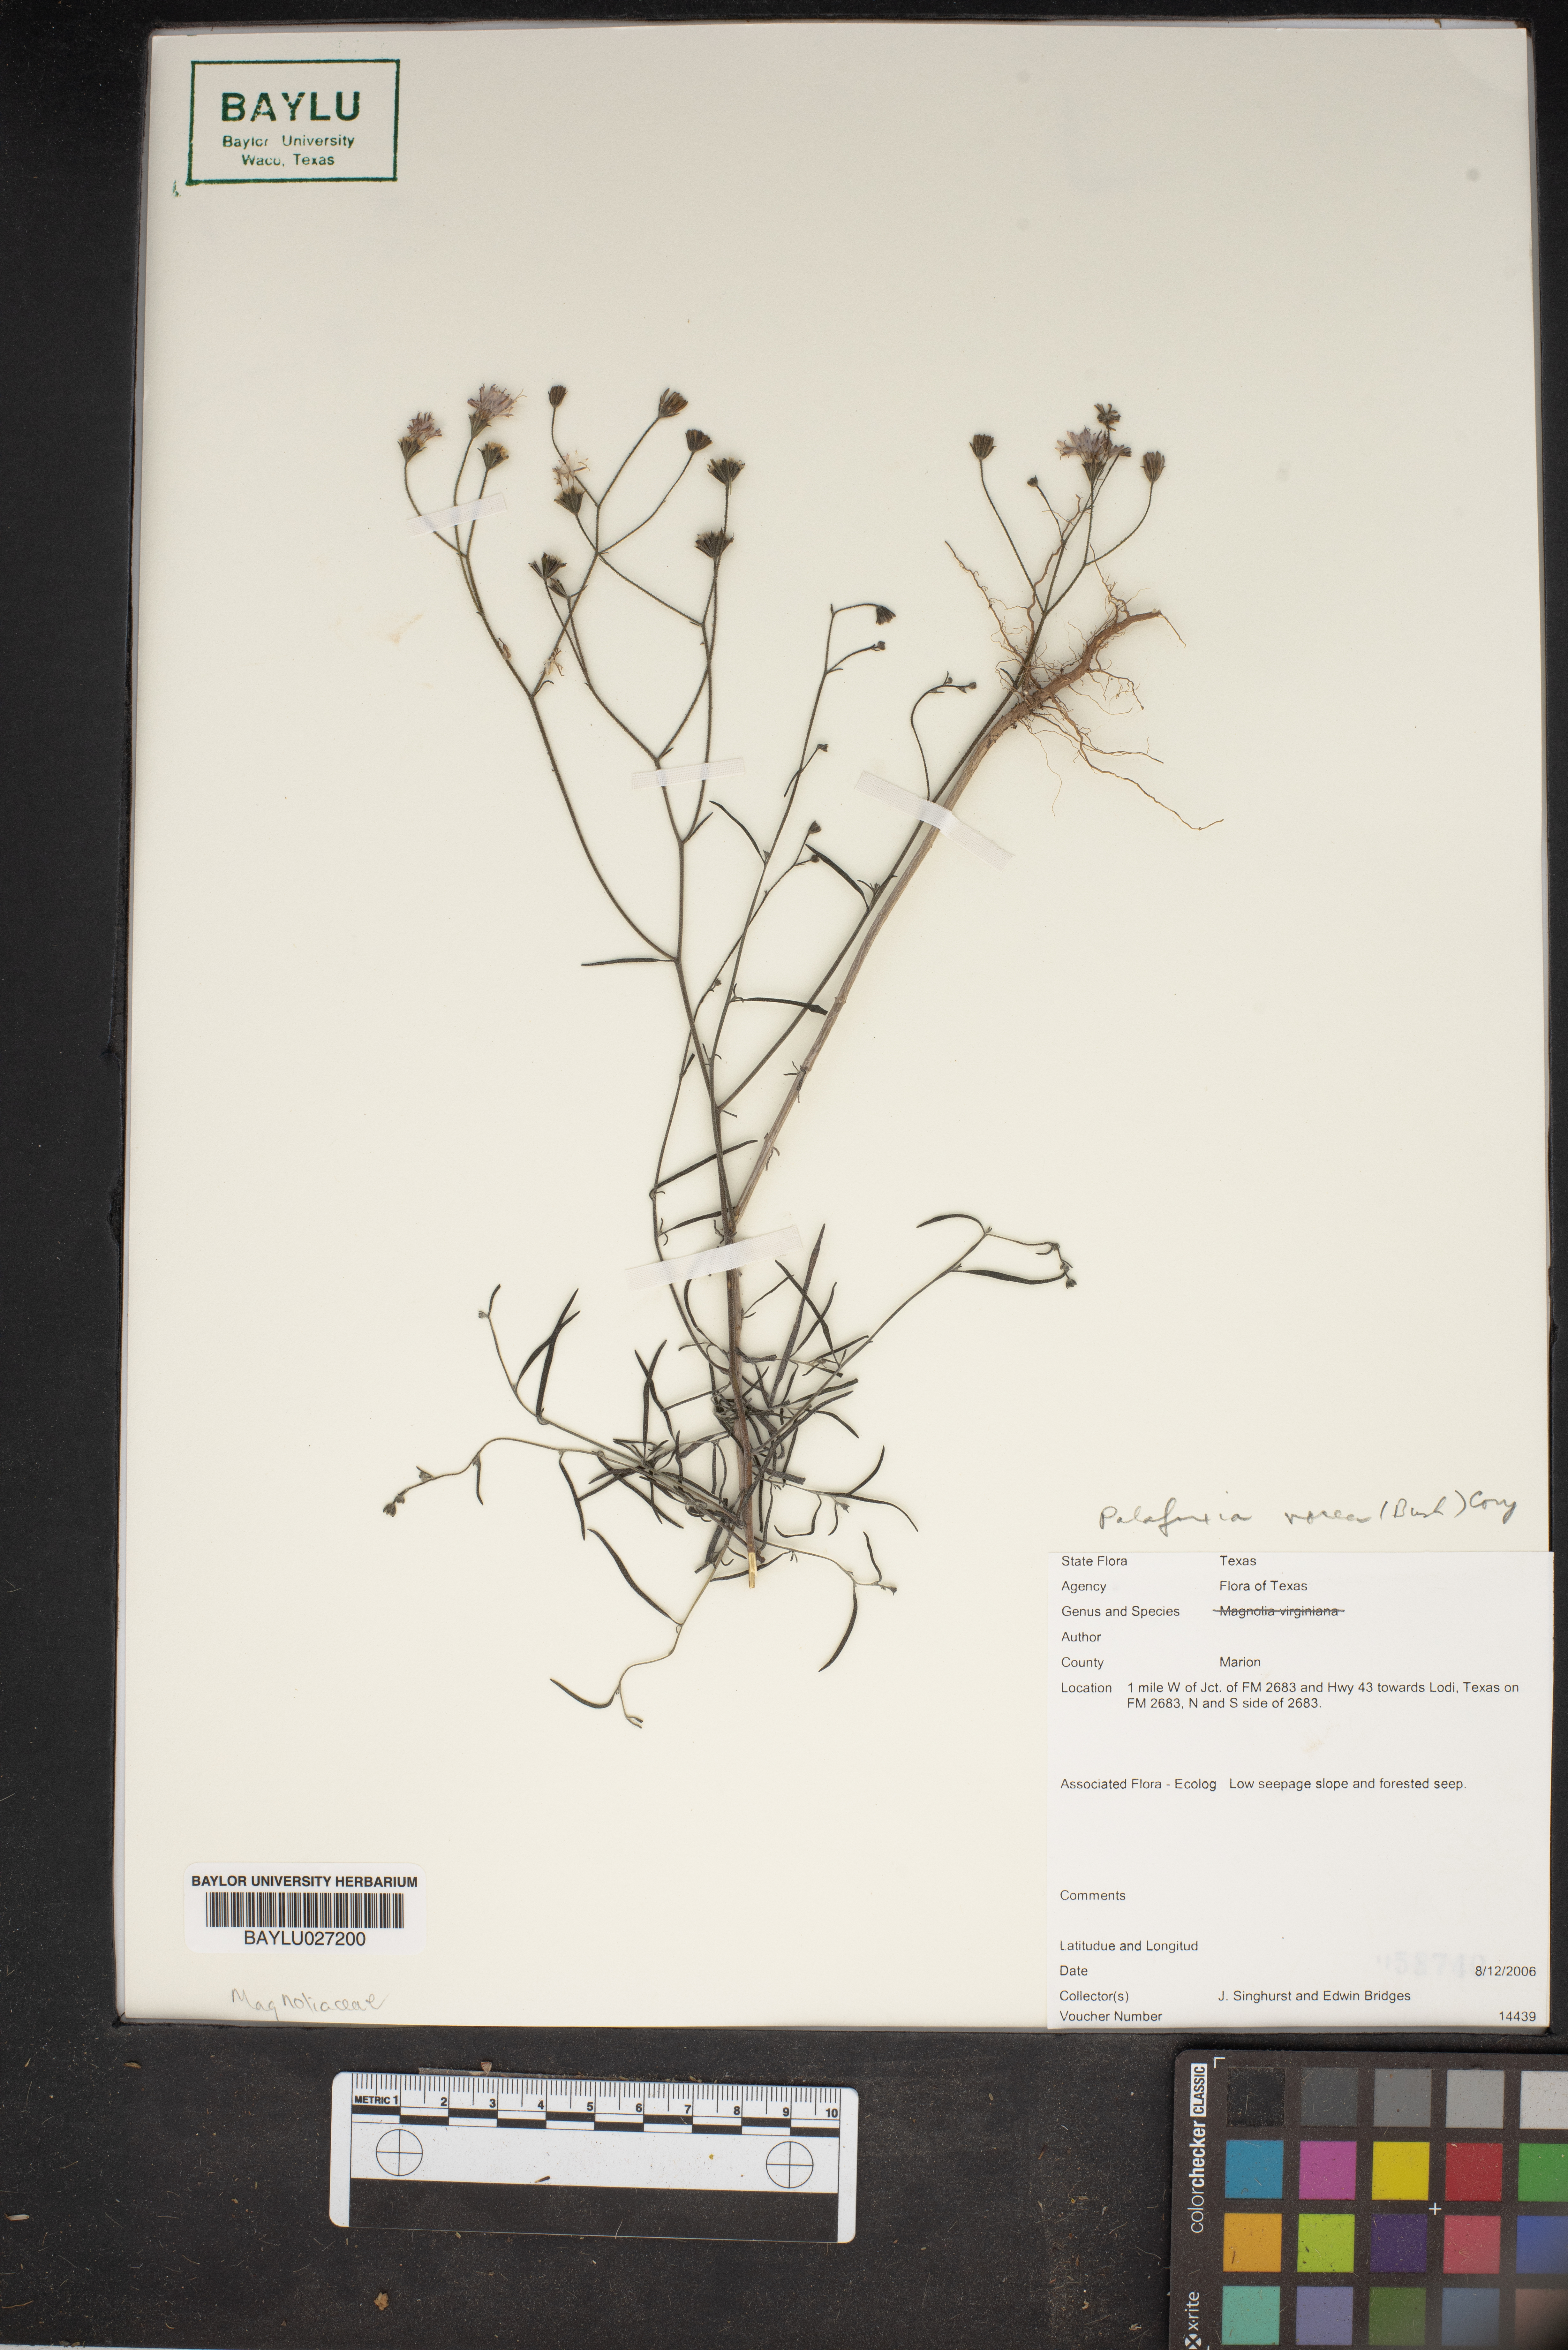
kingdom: Plantae
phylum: Tracheophyta
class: Magnoliopsida
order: Asterales
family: Asteraceae
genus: Palafoxia
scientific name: Palafoxia rosea
